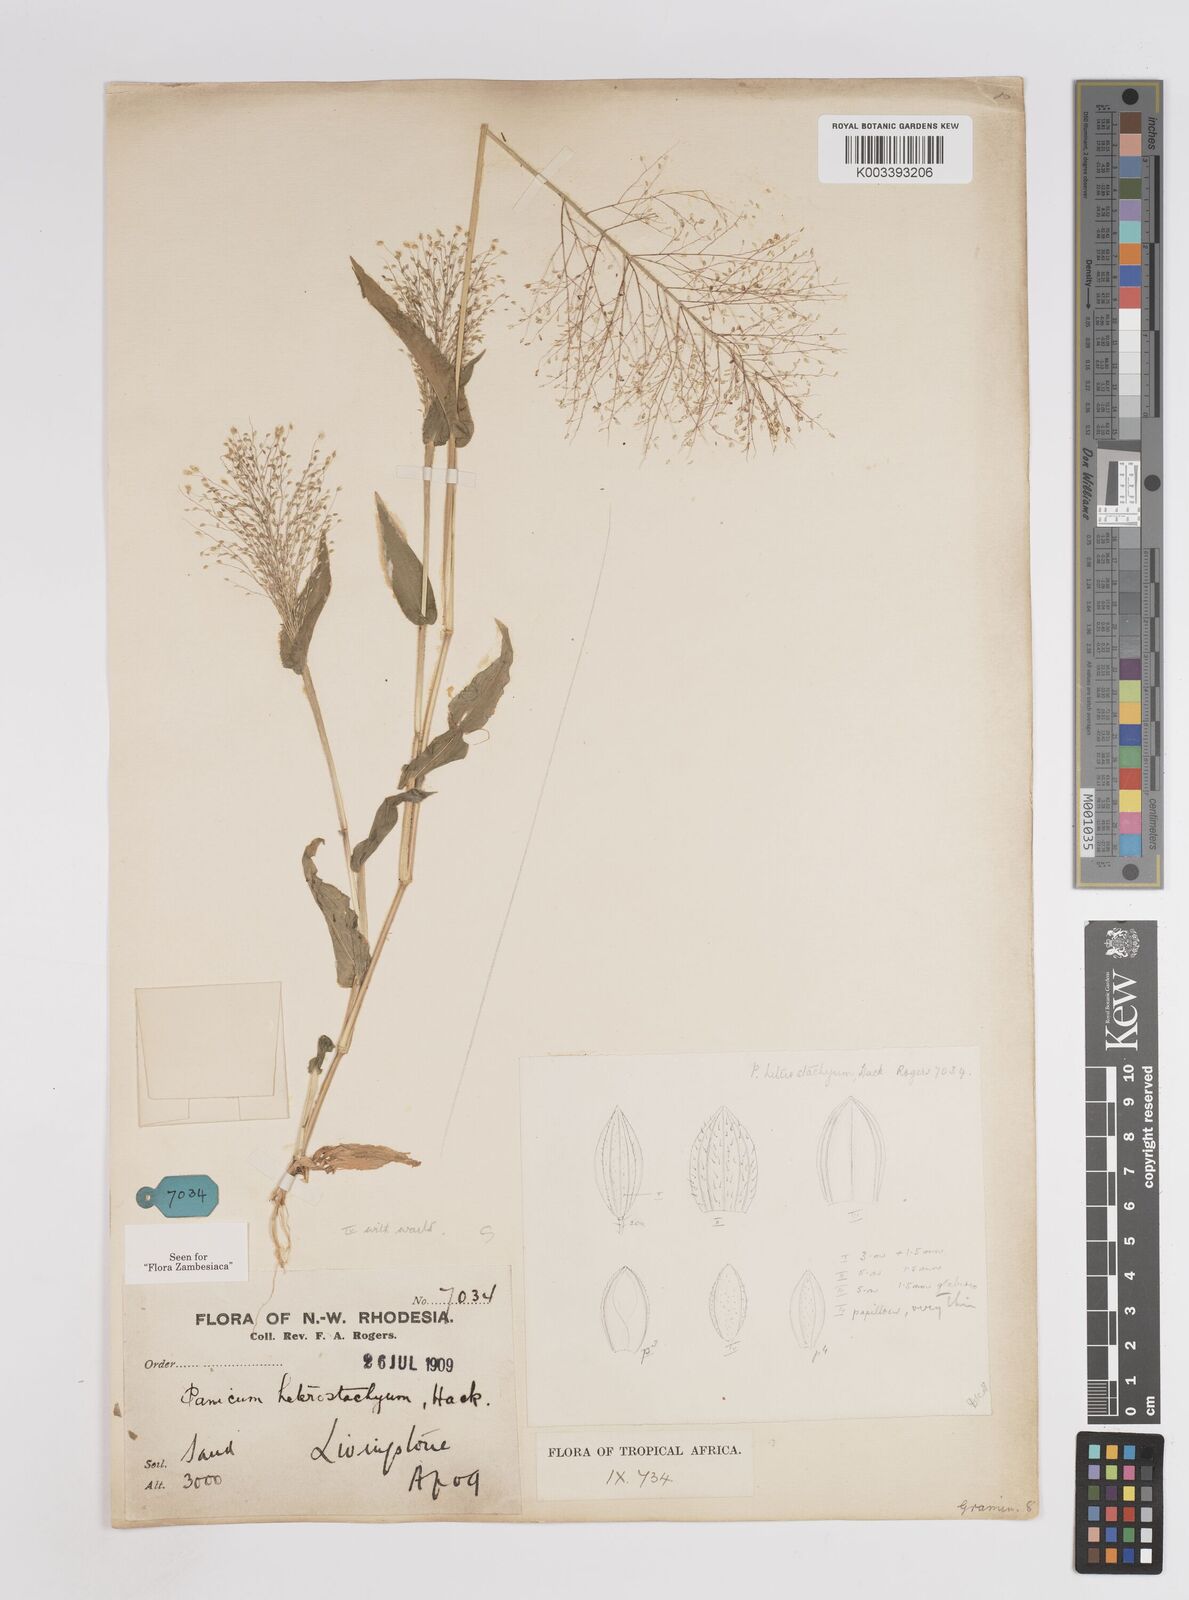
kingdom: Plantae
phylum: Tracheophyta
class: Liliopsida
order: Poales
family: Poaceae
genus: Panicum
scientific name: Panicum hirtum
